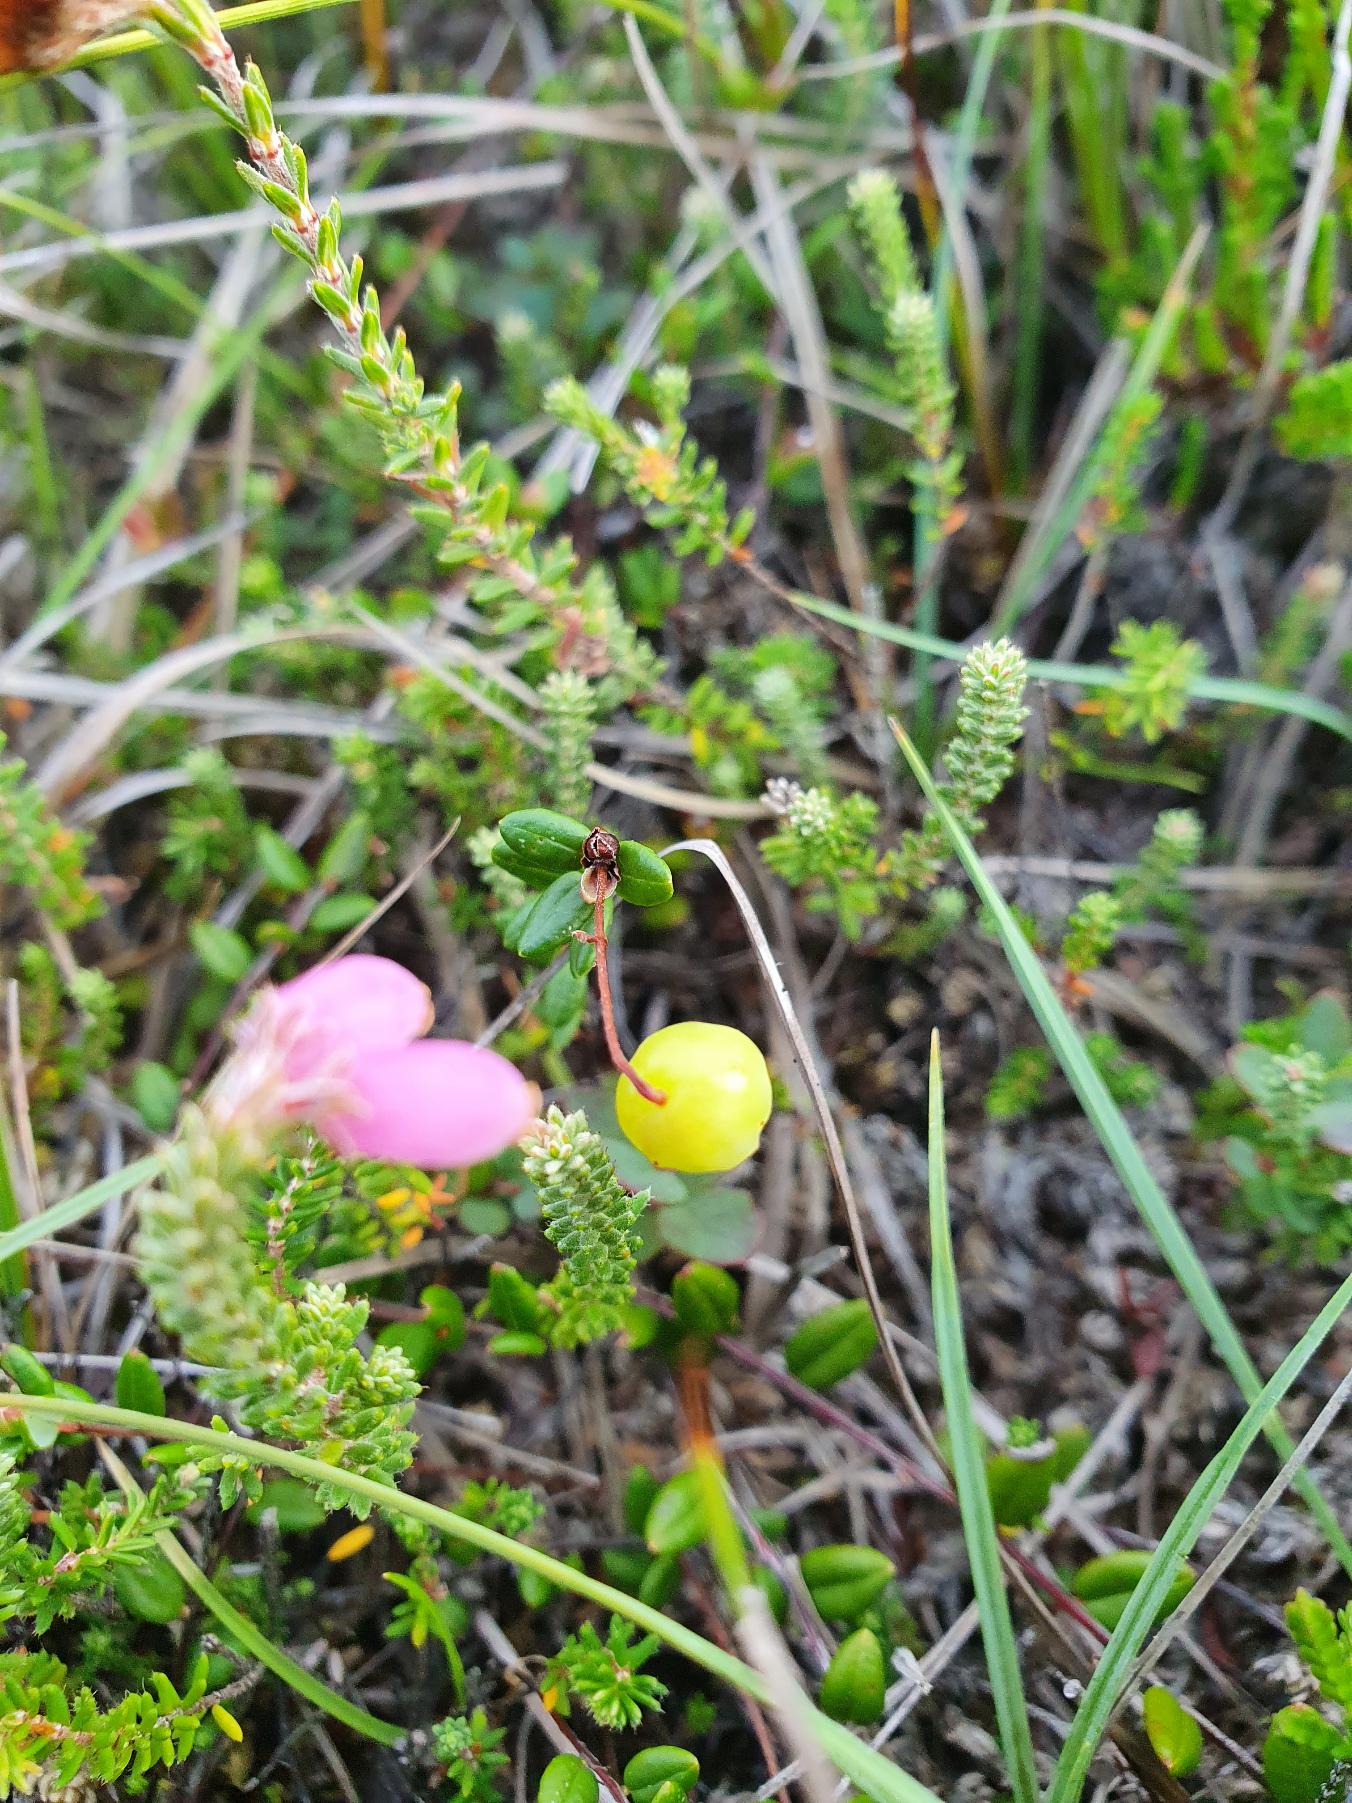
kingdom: Plantae
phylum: Tracheophyta
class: Magnoliopsida
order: Ericales
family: Ericaceae
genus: Vaccinium
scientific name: Vaccinium oxycoccos
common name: Tranebær
